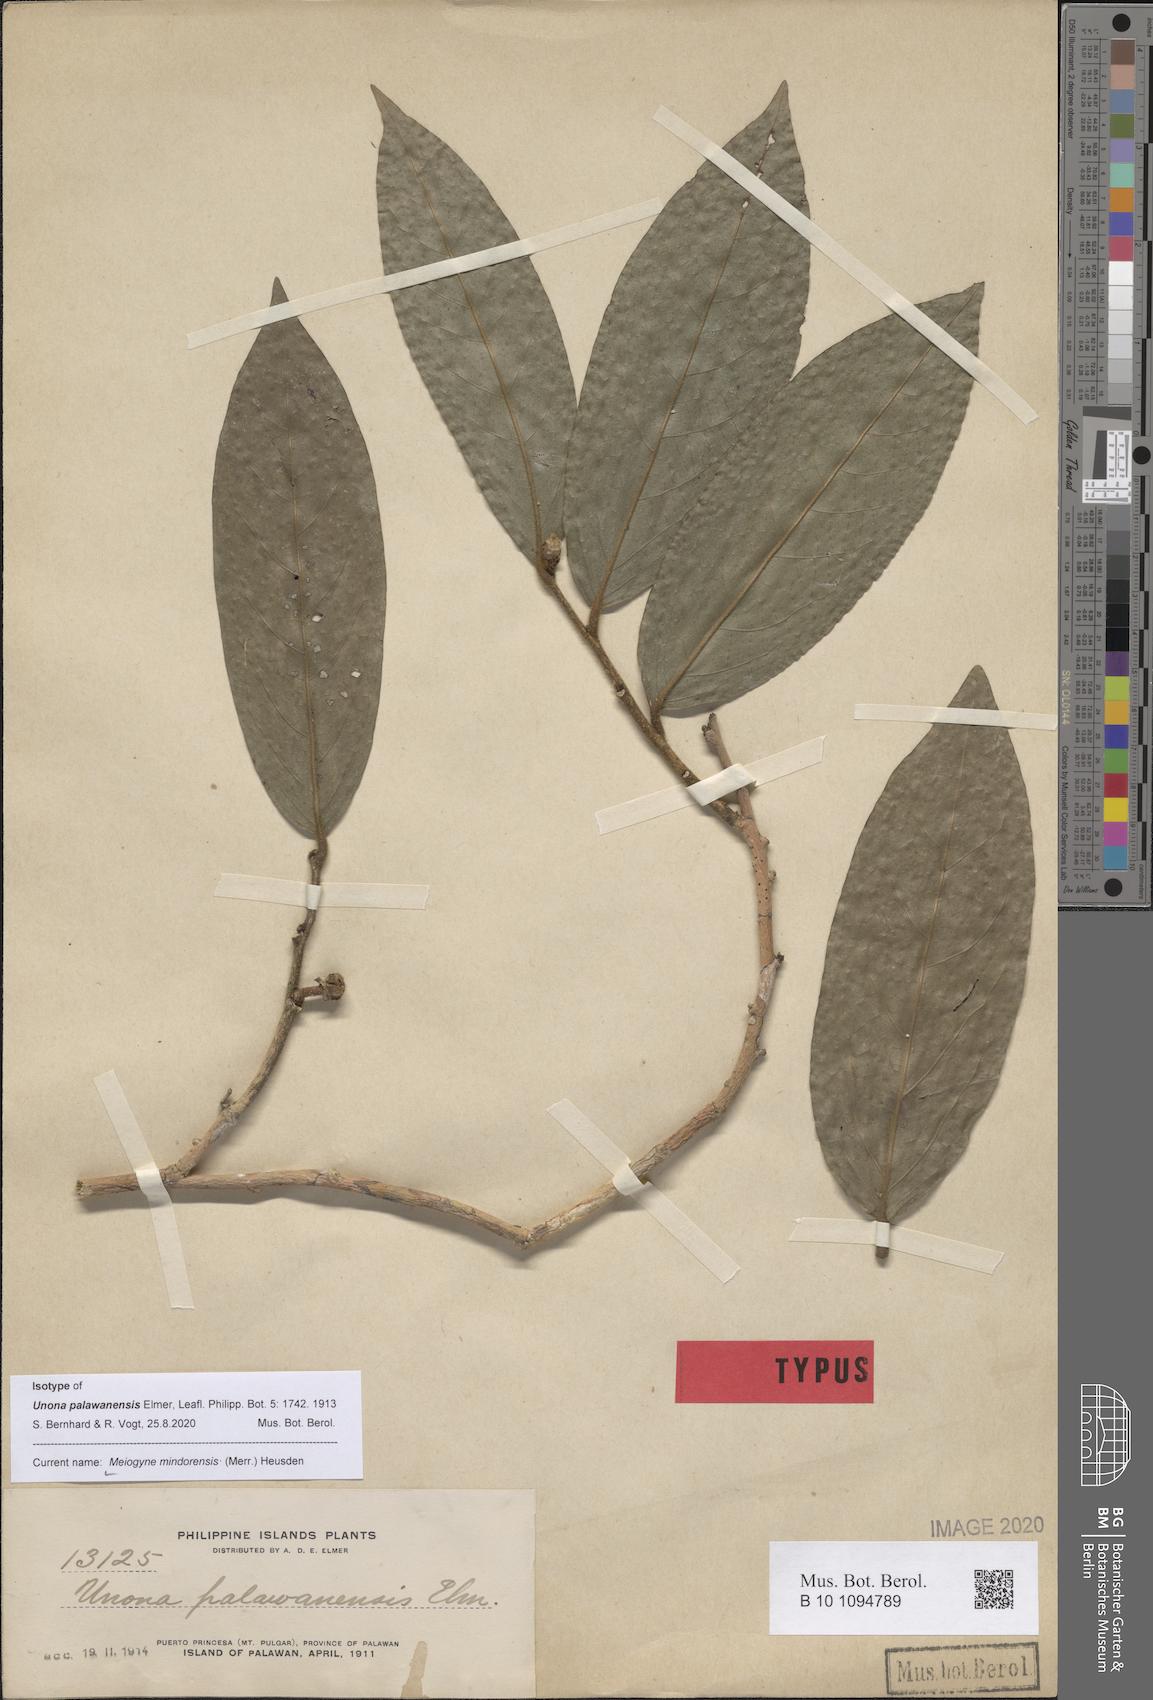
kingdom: Plantae
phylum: Tracheophyta
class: Magnoliopsida
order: Magnoliales
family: Annonaceae
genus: Meiogyne
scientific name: Meiogyne mindorensis
